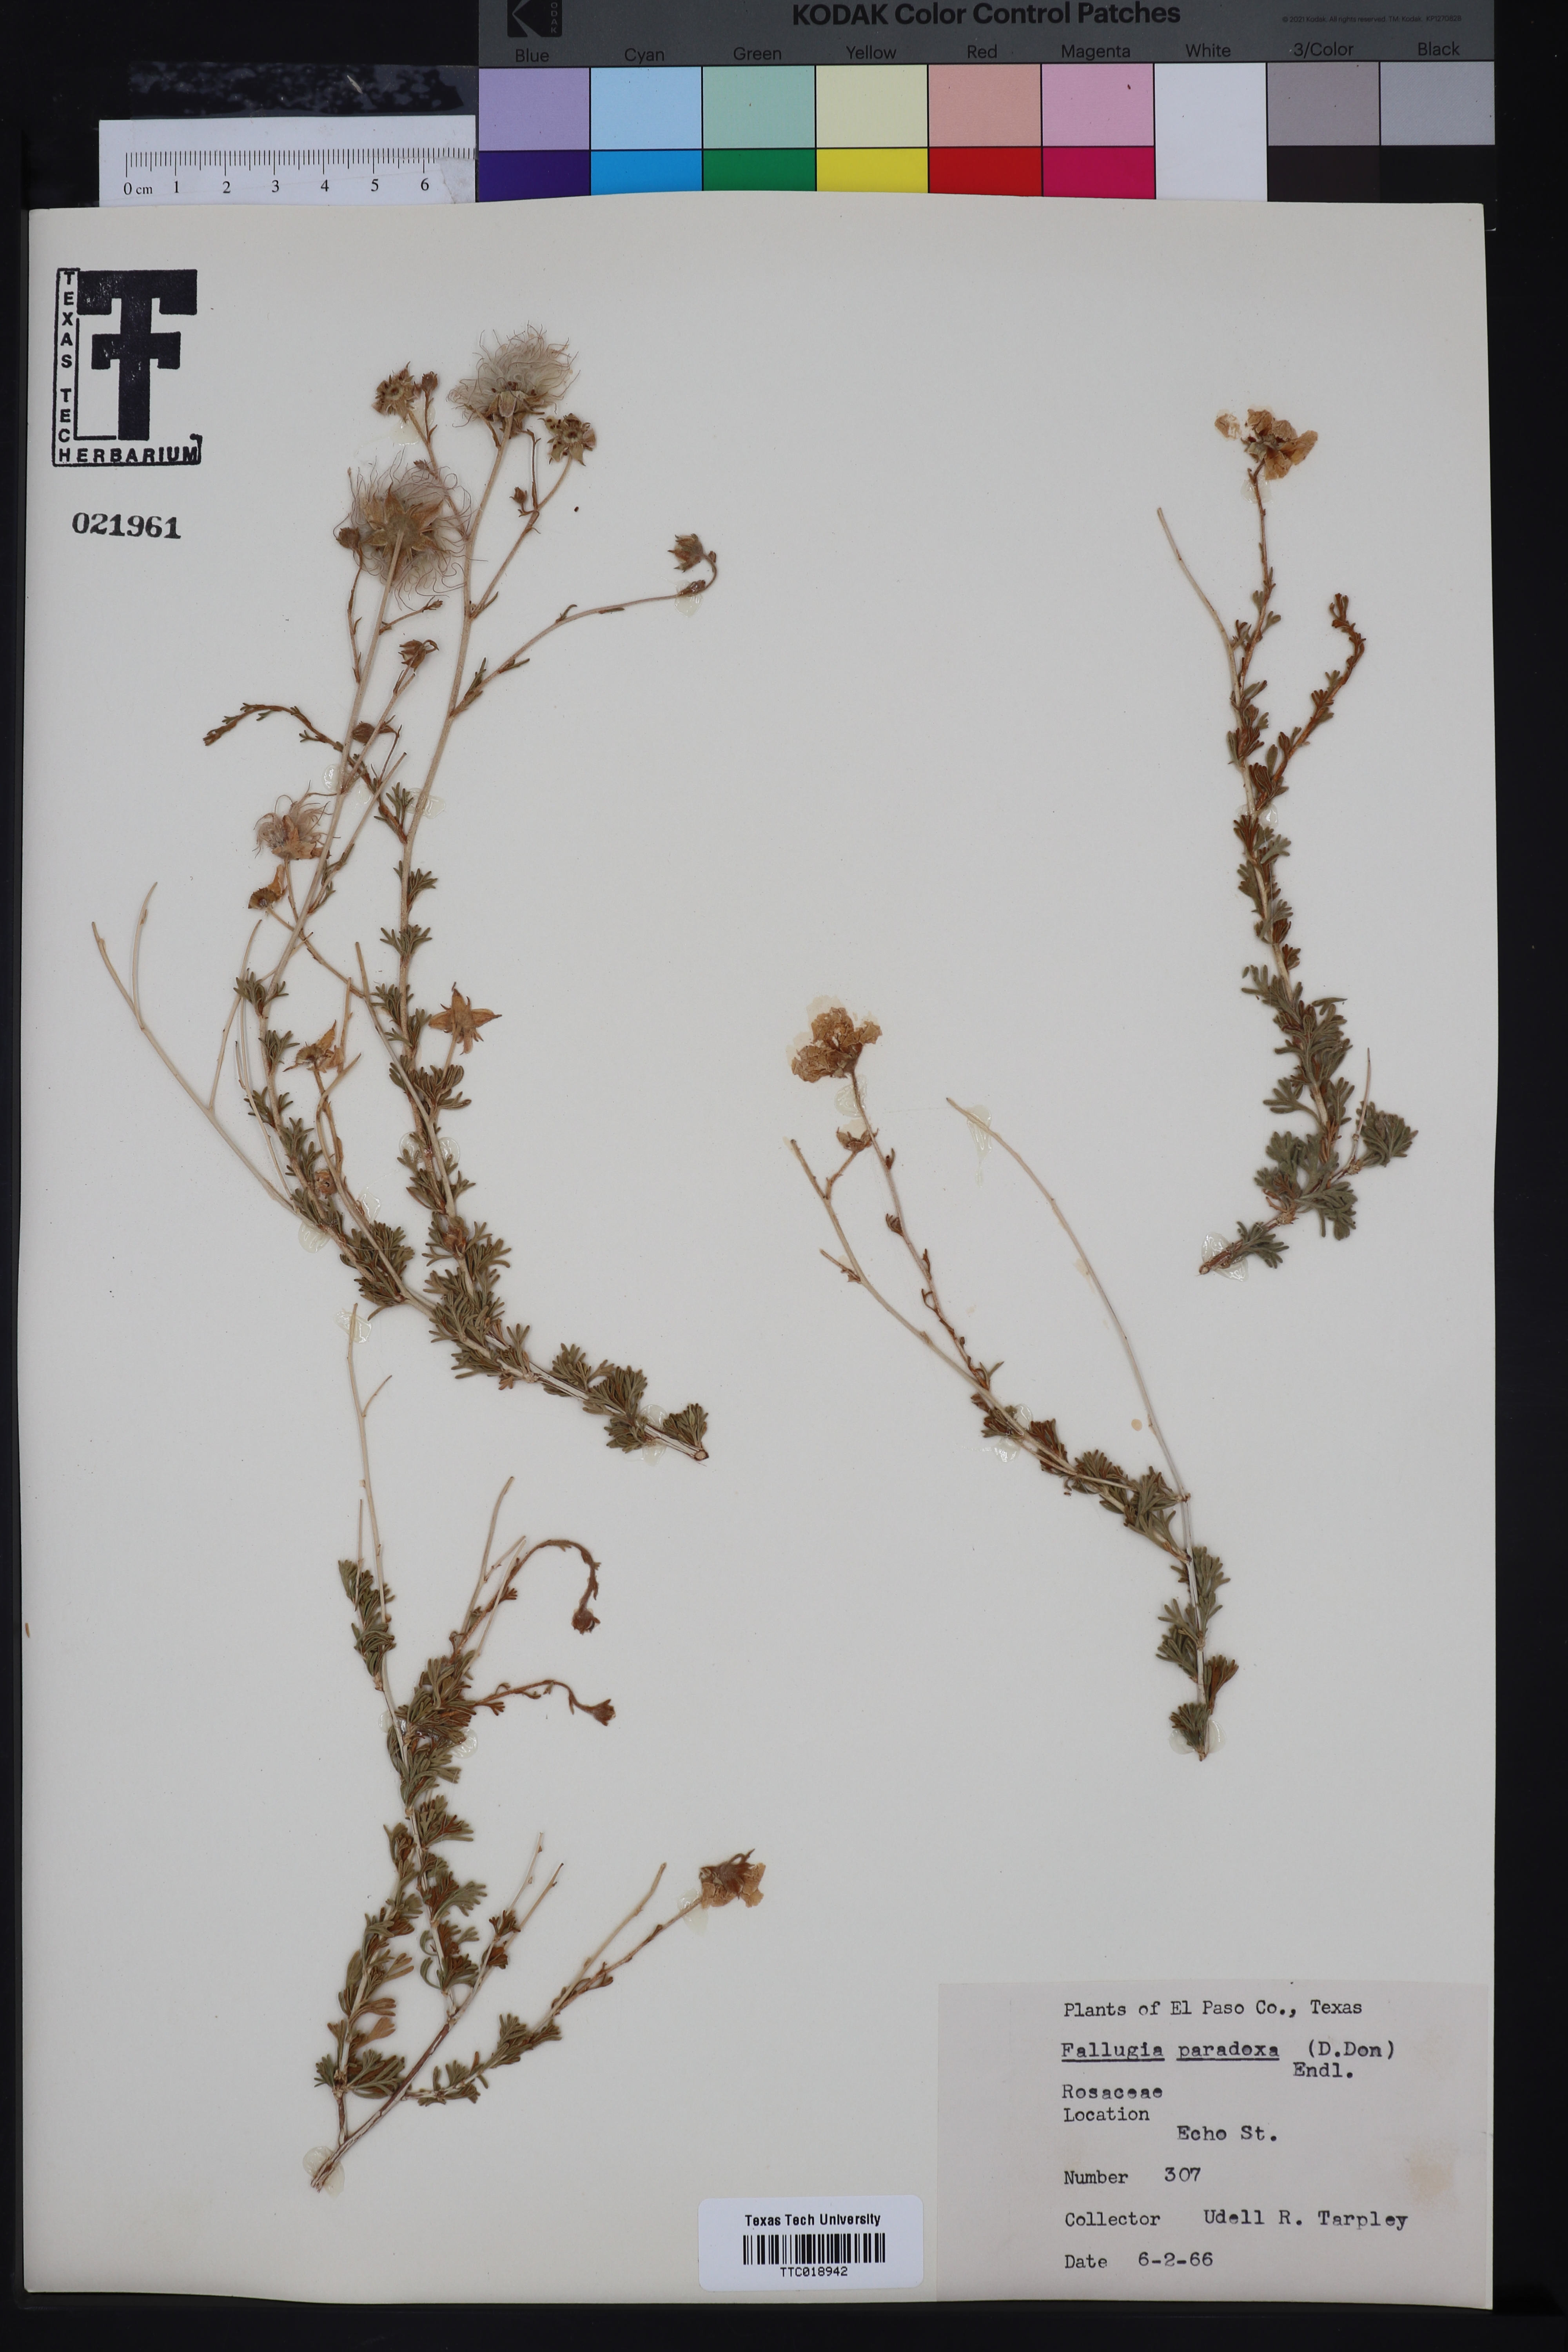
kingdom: Plantae
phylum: Tracheophyta
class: Magnoliopsida
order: Rosales
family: Rosaceae
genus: Fallugia
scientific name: Fallugia paradoxa
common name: Apache-plume
